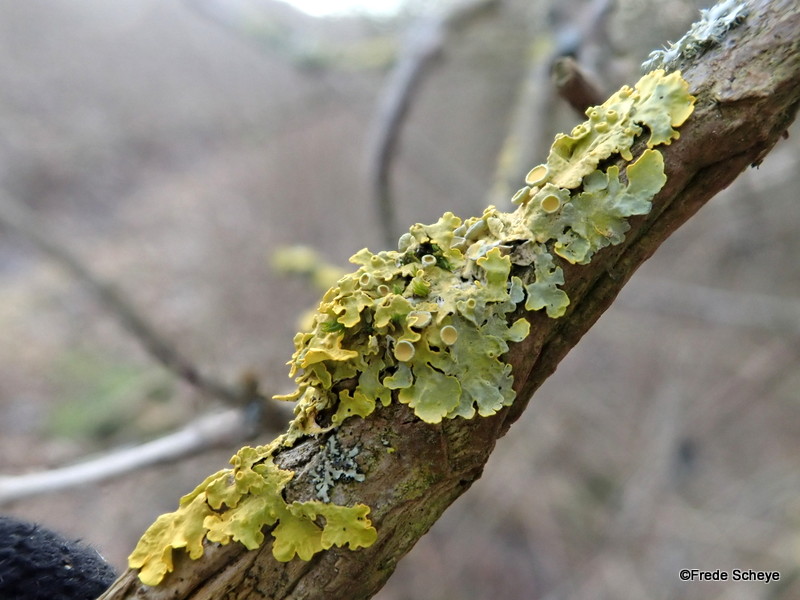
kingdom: Fungi
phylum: Ascomycota
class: Lecanoromycetes
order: Teloschistales
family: Teloschistaceae
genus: Xanthoria
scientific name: Xanthoria parietina
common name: almindelig væggelav
